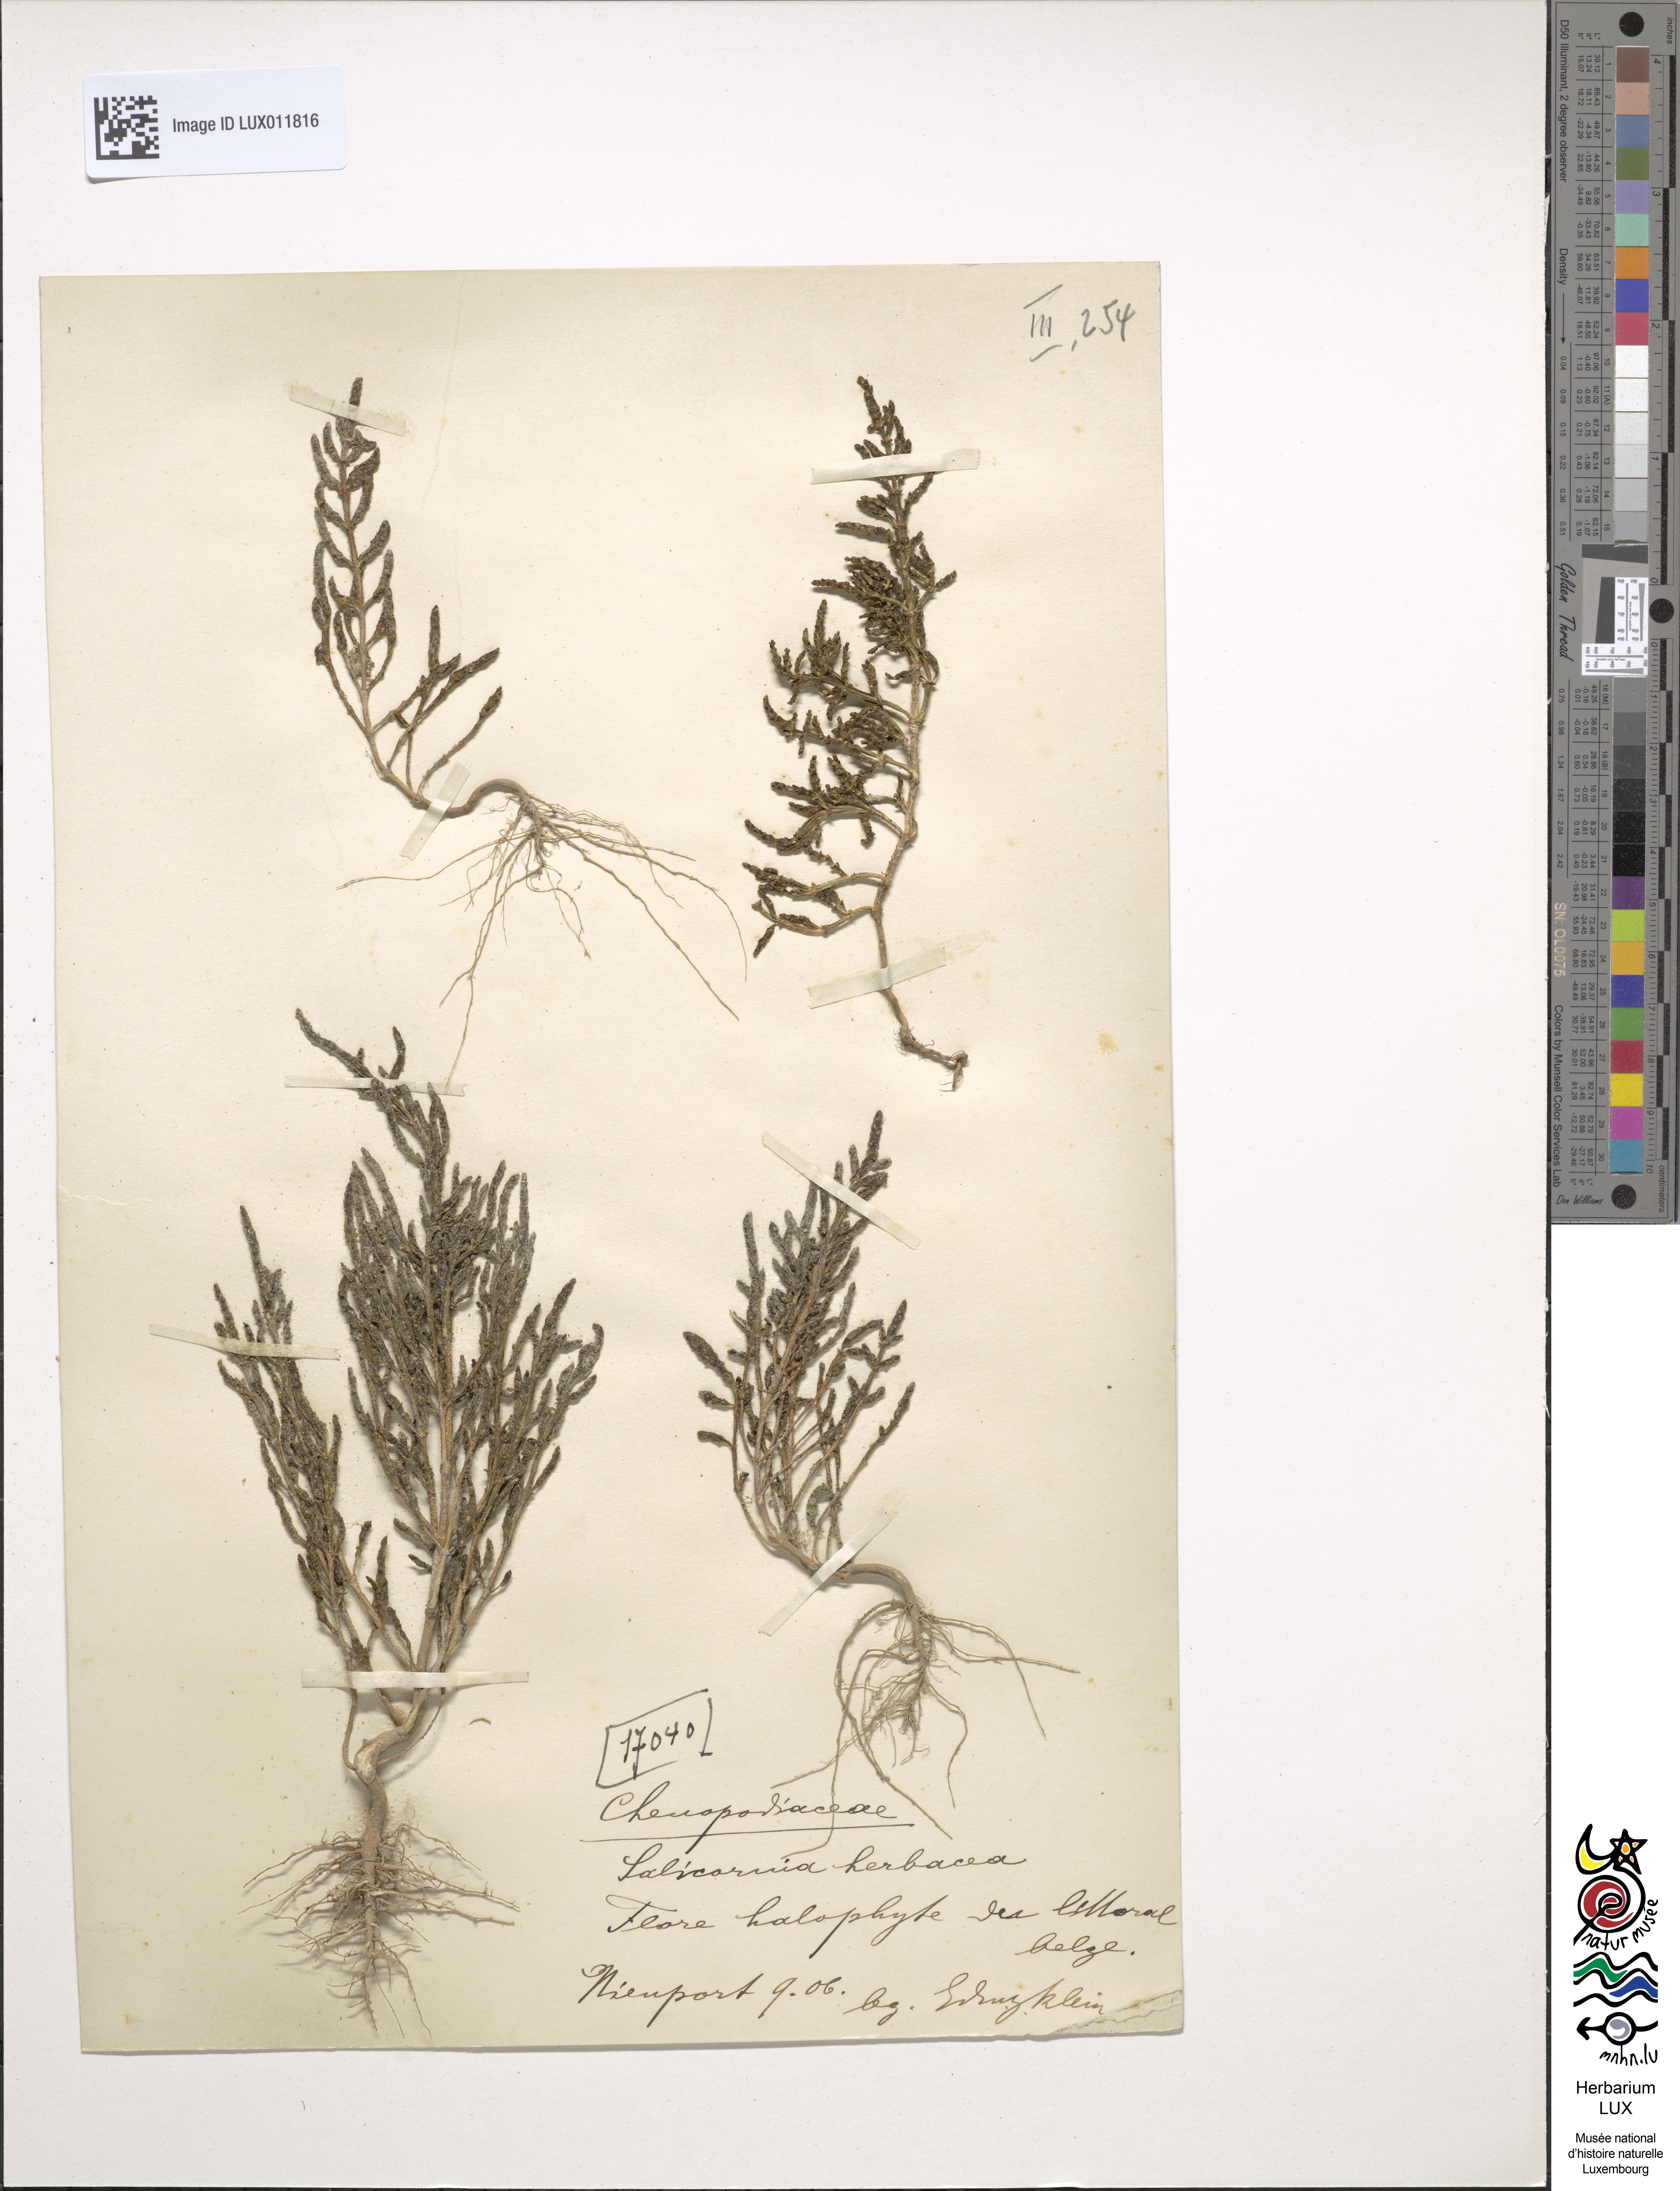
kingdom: Plantae
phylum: Tracheophyta
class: Magnoliopsida
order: Caryophyllales
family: Amaranthaceae
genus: Salicornia
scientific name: Salicornia europaea
